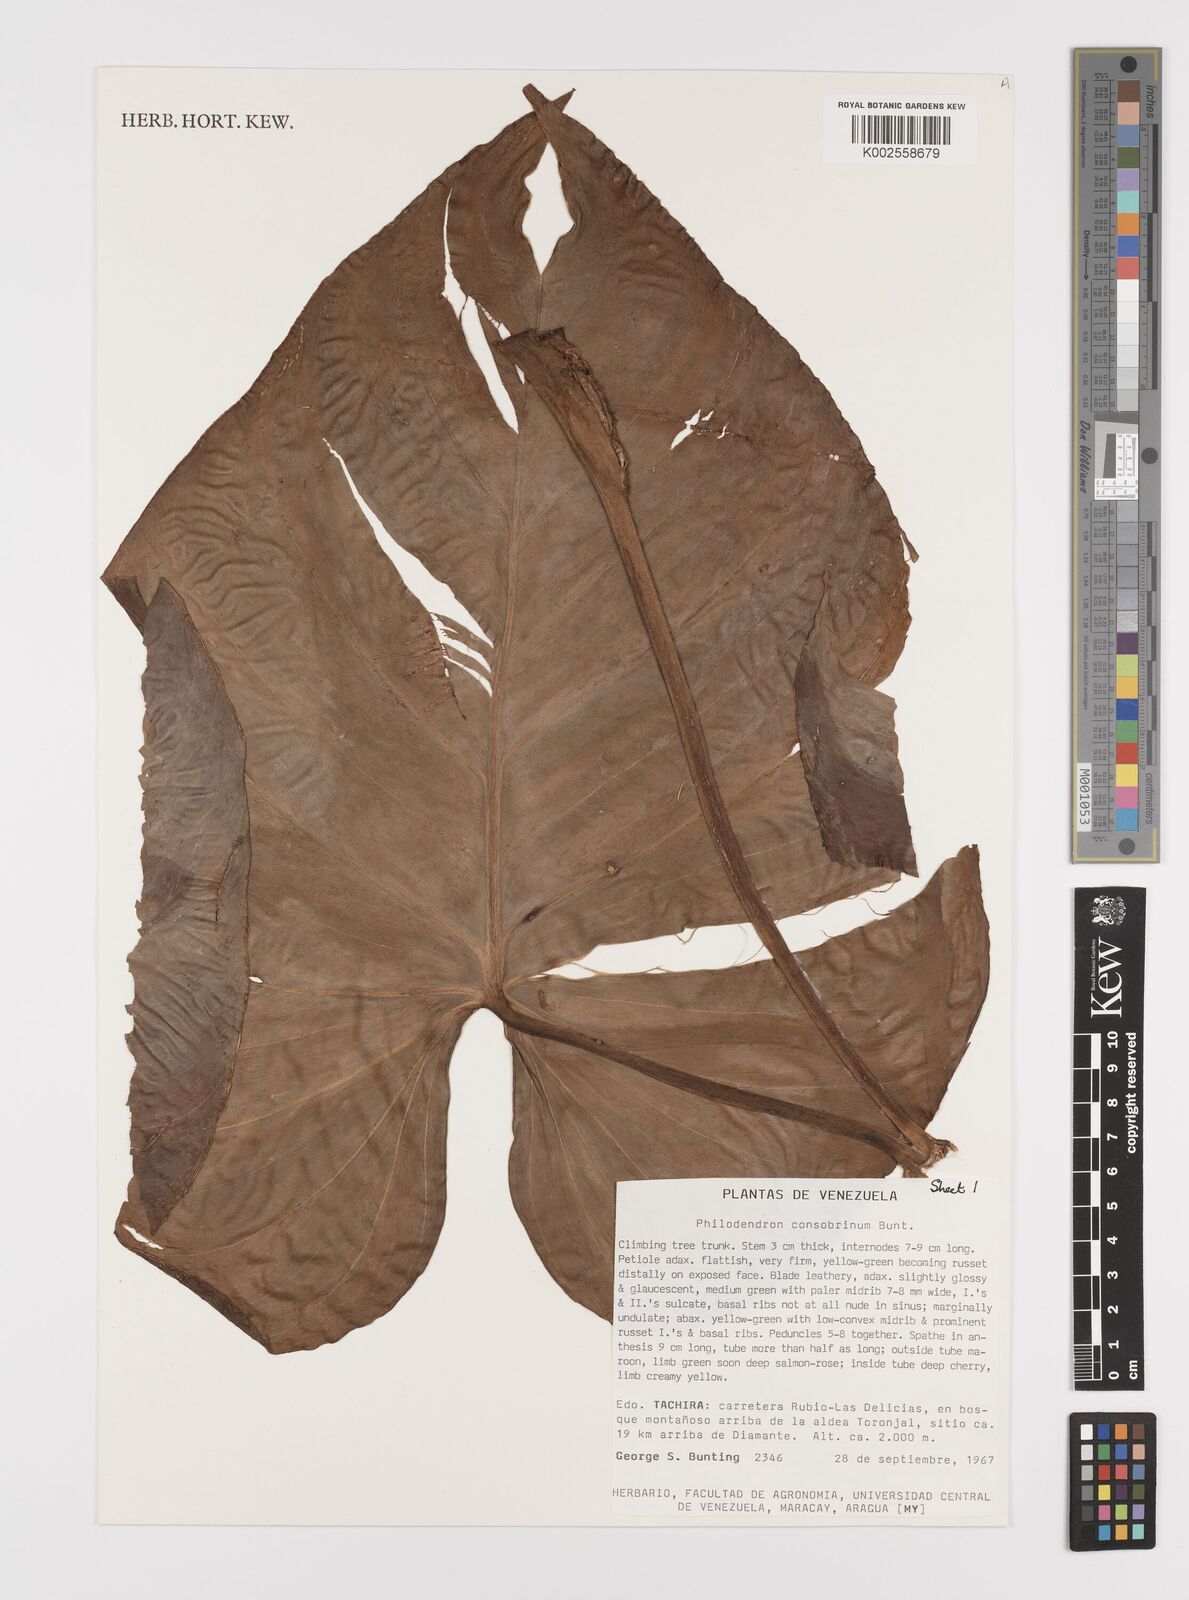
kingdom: Plantae
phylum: Tracheophyta
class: Liliopsida
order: Alismatales
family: Araceae
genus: Philodendron
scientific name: Philodendron consobrinum
